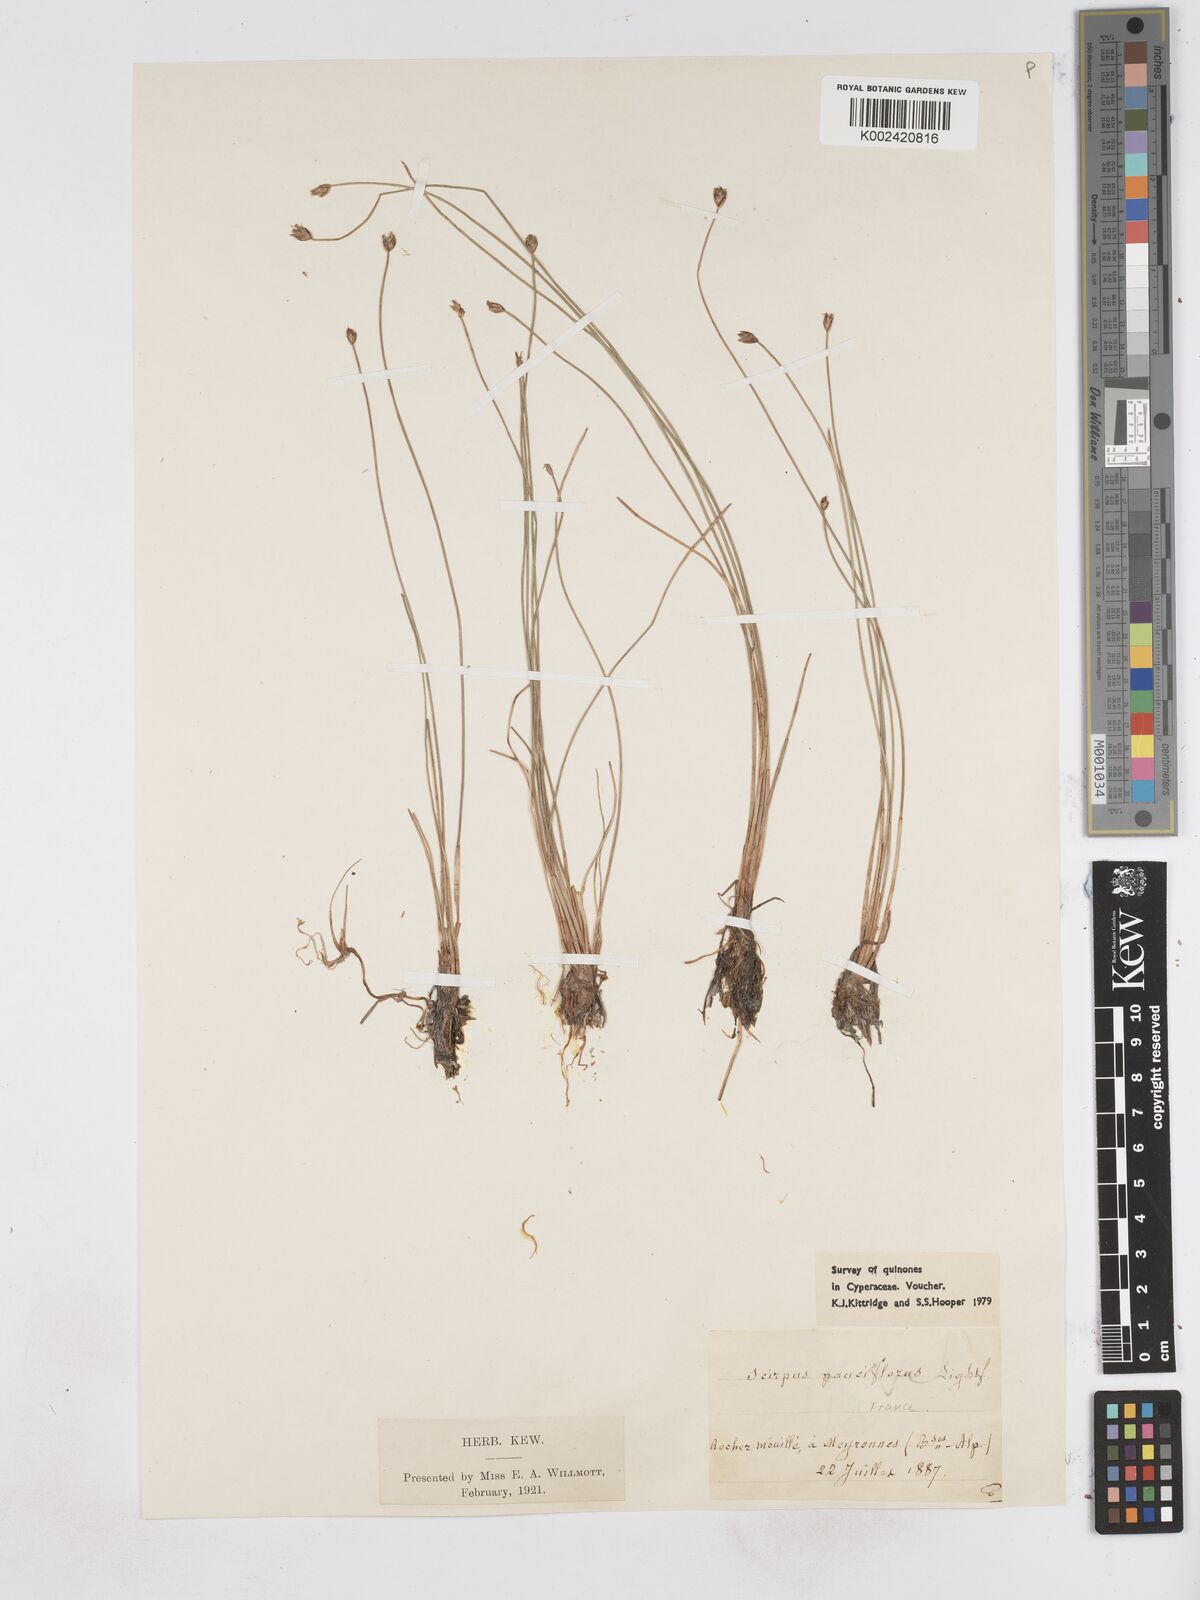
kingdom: Plantae
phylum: Tracheophyta
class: Liliopsida
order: Poales
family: Cyperaceae
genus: Eleocharis
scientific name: Eleocharis quinqueflora
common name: Few-flowered spike-rush
